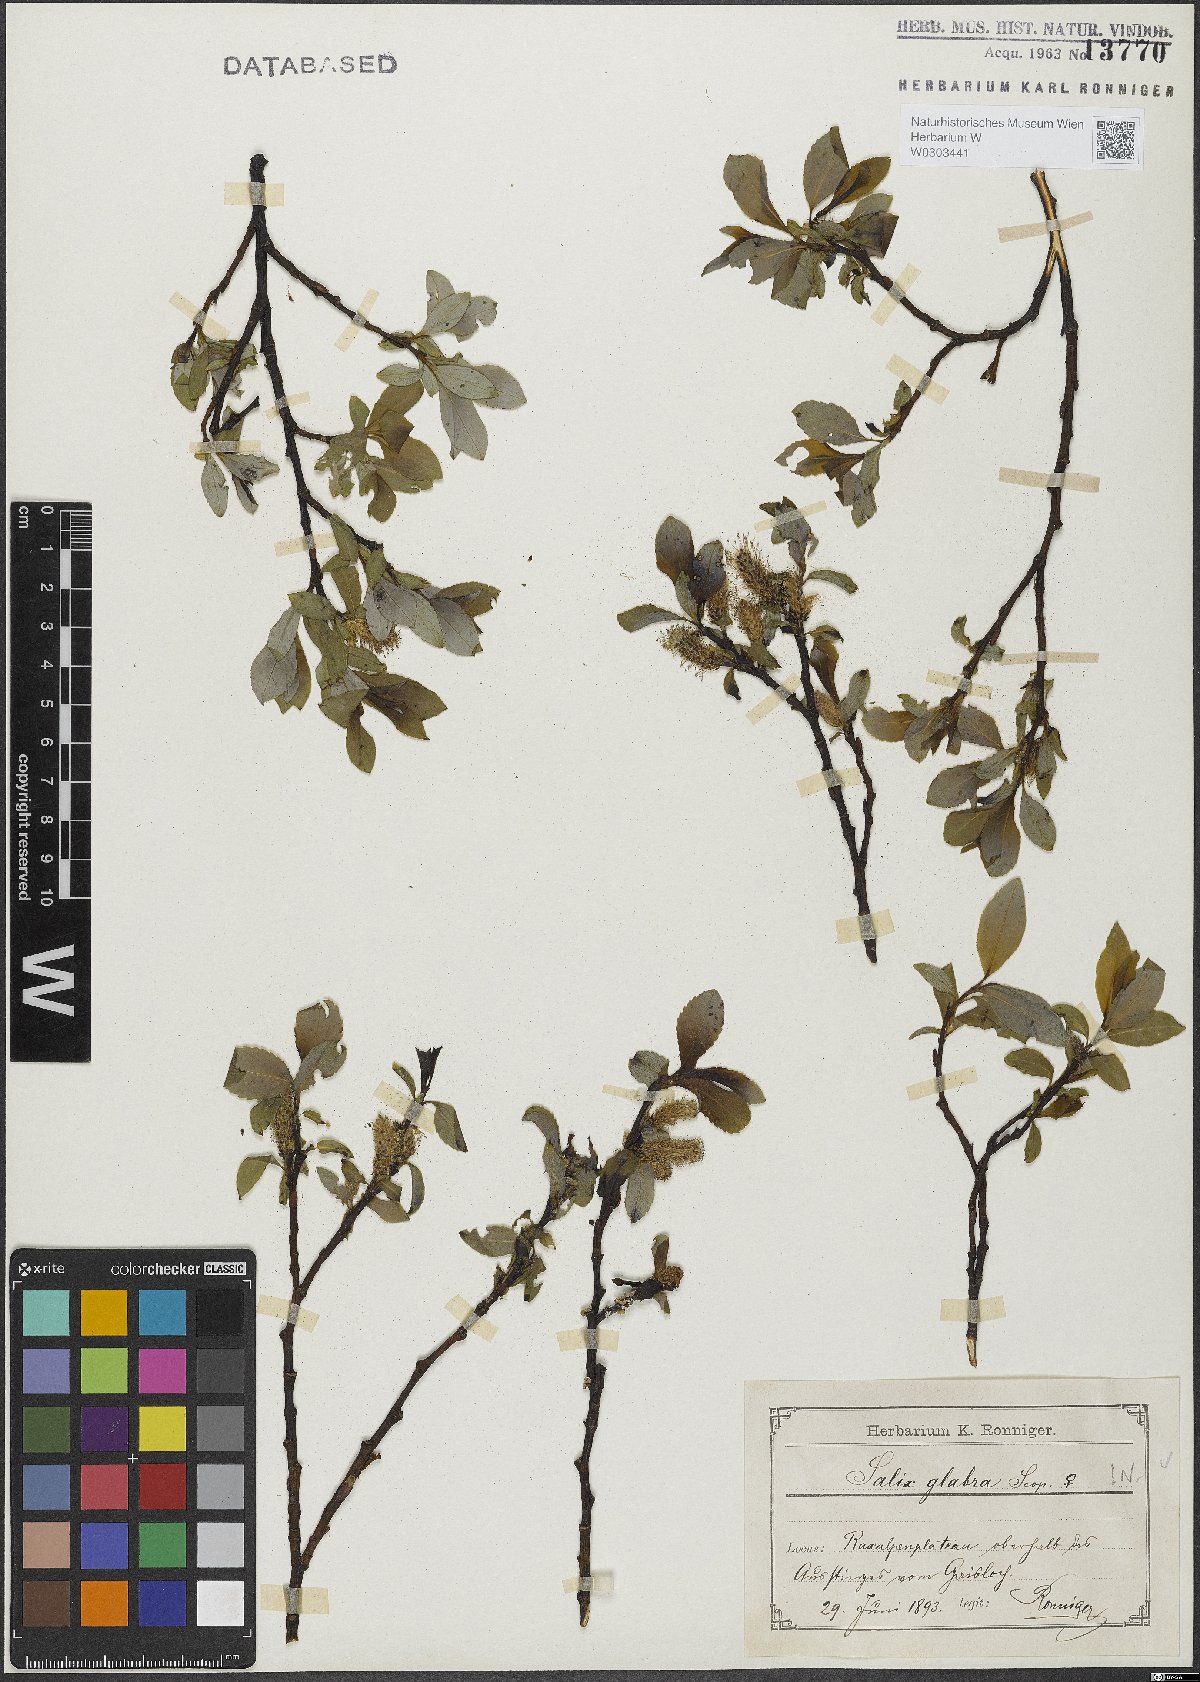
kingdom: Plantae
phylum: Tracheophyta
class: Magnoliopsida
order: Malpighiales
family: Salicaceae
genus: Salix
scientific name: Salix glabra
